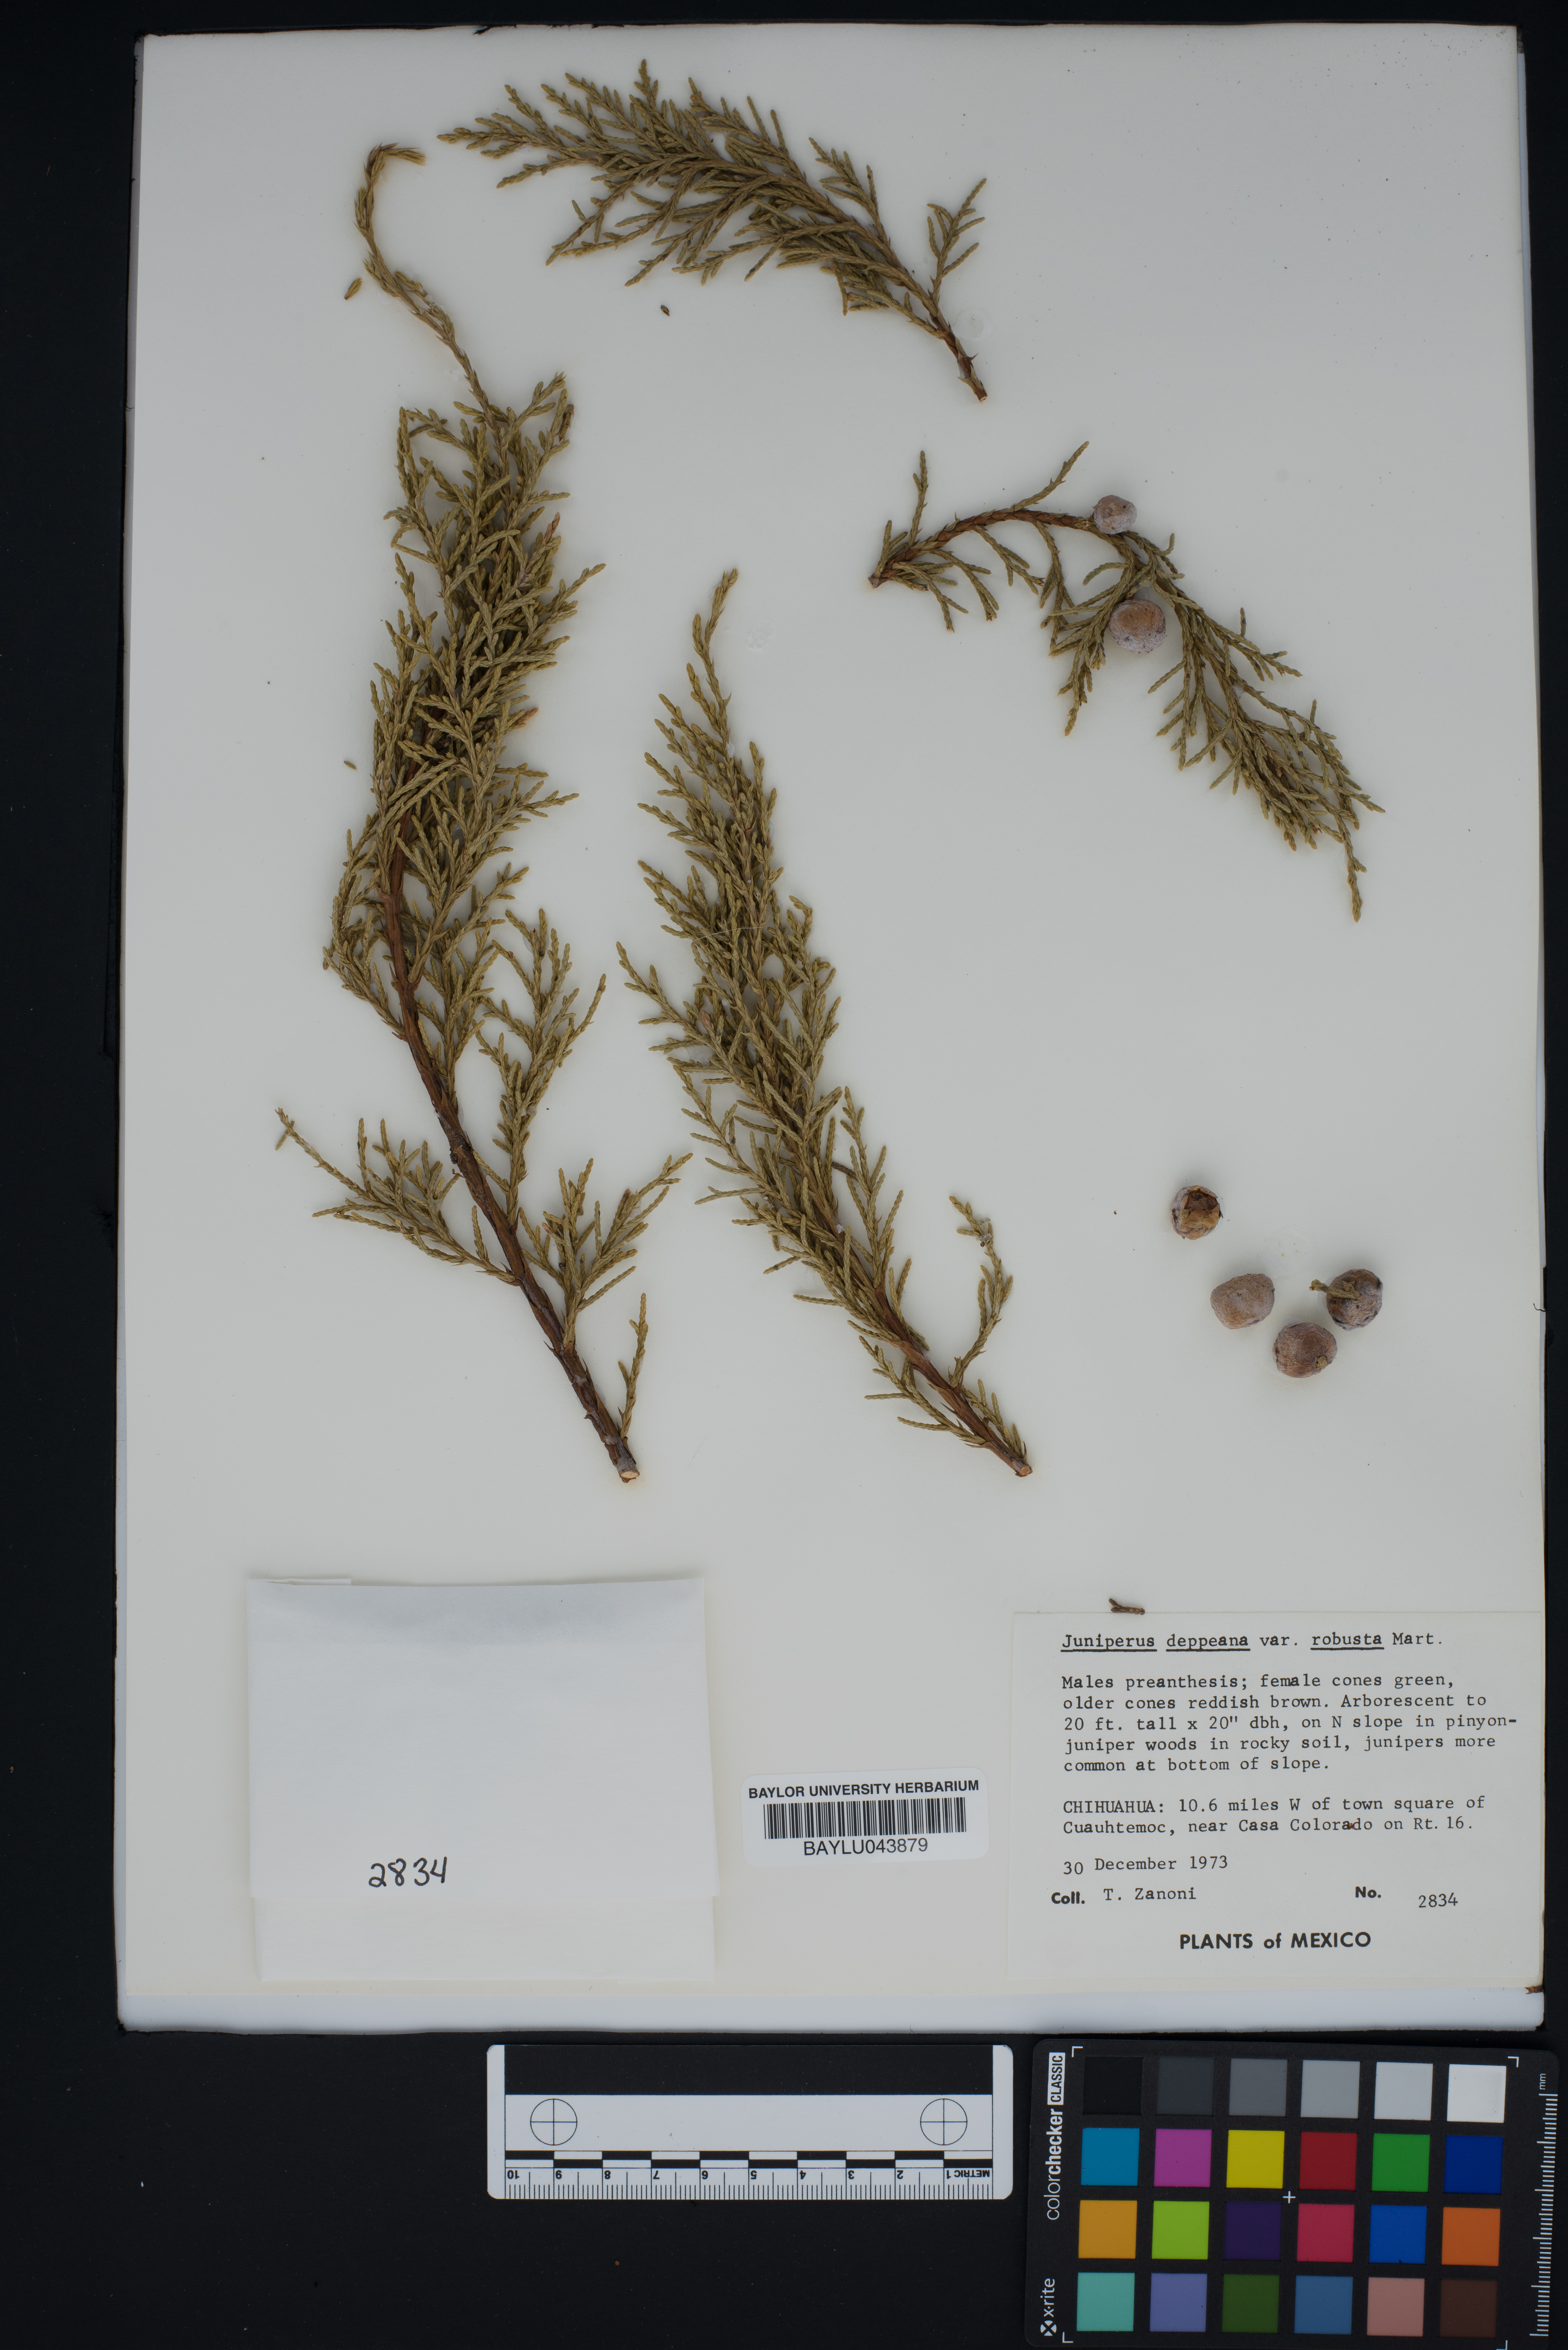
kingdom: Plantae
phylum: Tracheophyta
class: Pinopsida
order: Pinales
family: Cupressaceae
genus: Juniperus
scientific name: Juniperus deppeana
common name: Alligator juniper
